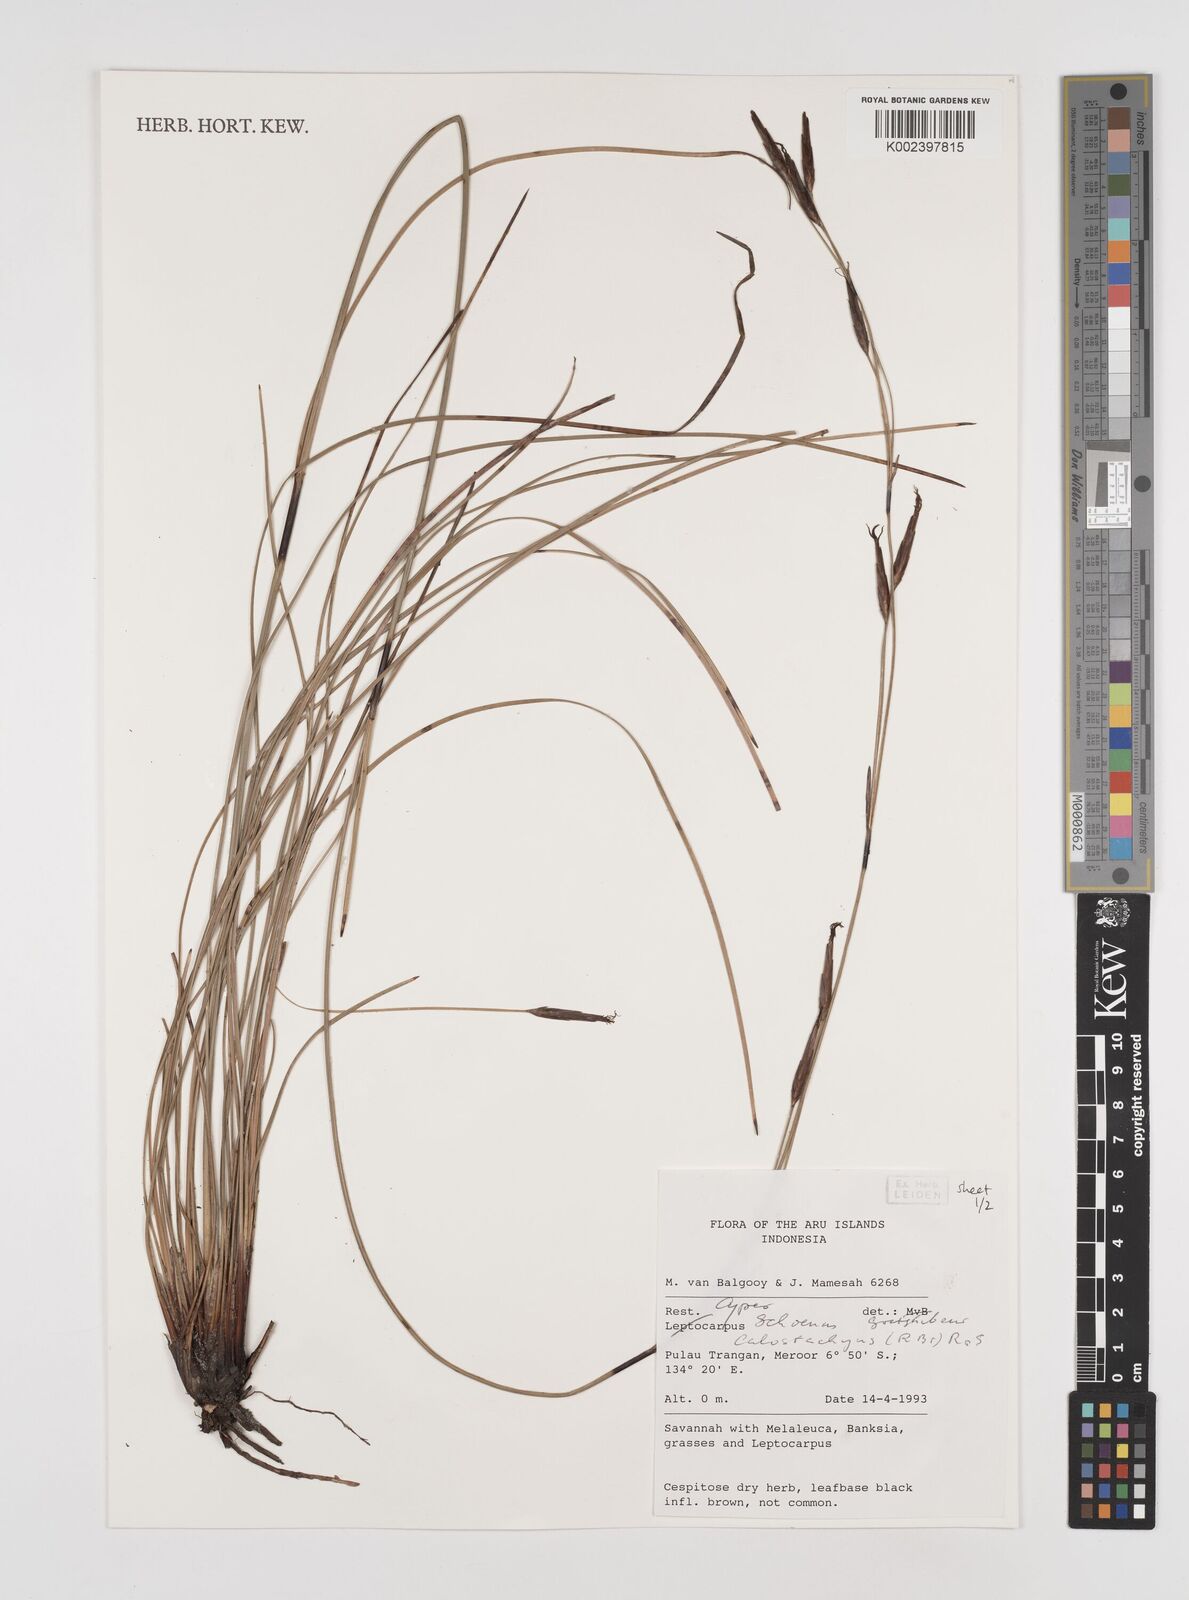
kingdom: Plantae
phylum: Tracheophyta
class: Liliopsida
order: Poales
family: Cyperaceae
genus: Schoenus
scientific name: Schoenus calostachyus
